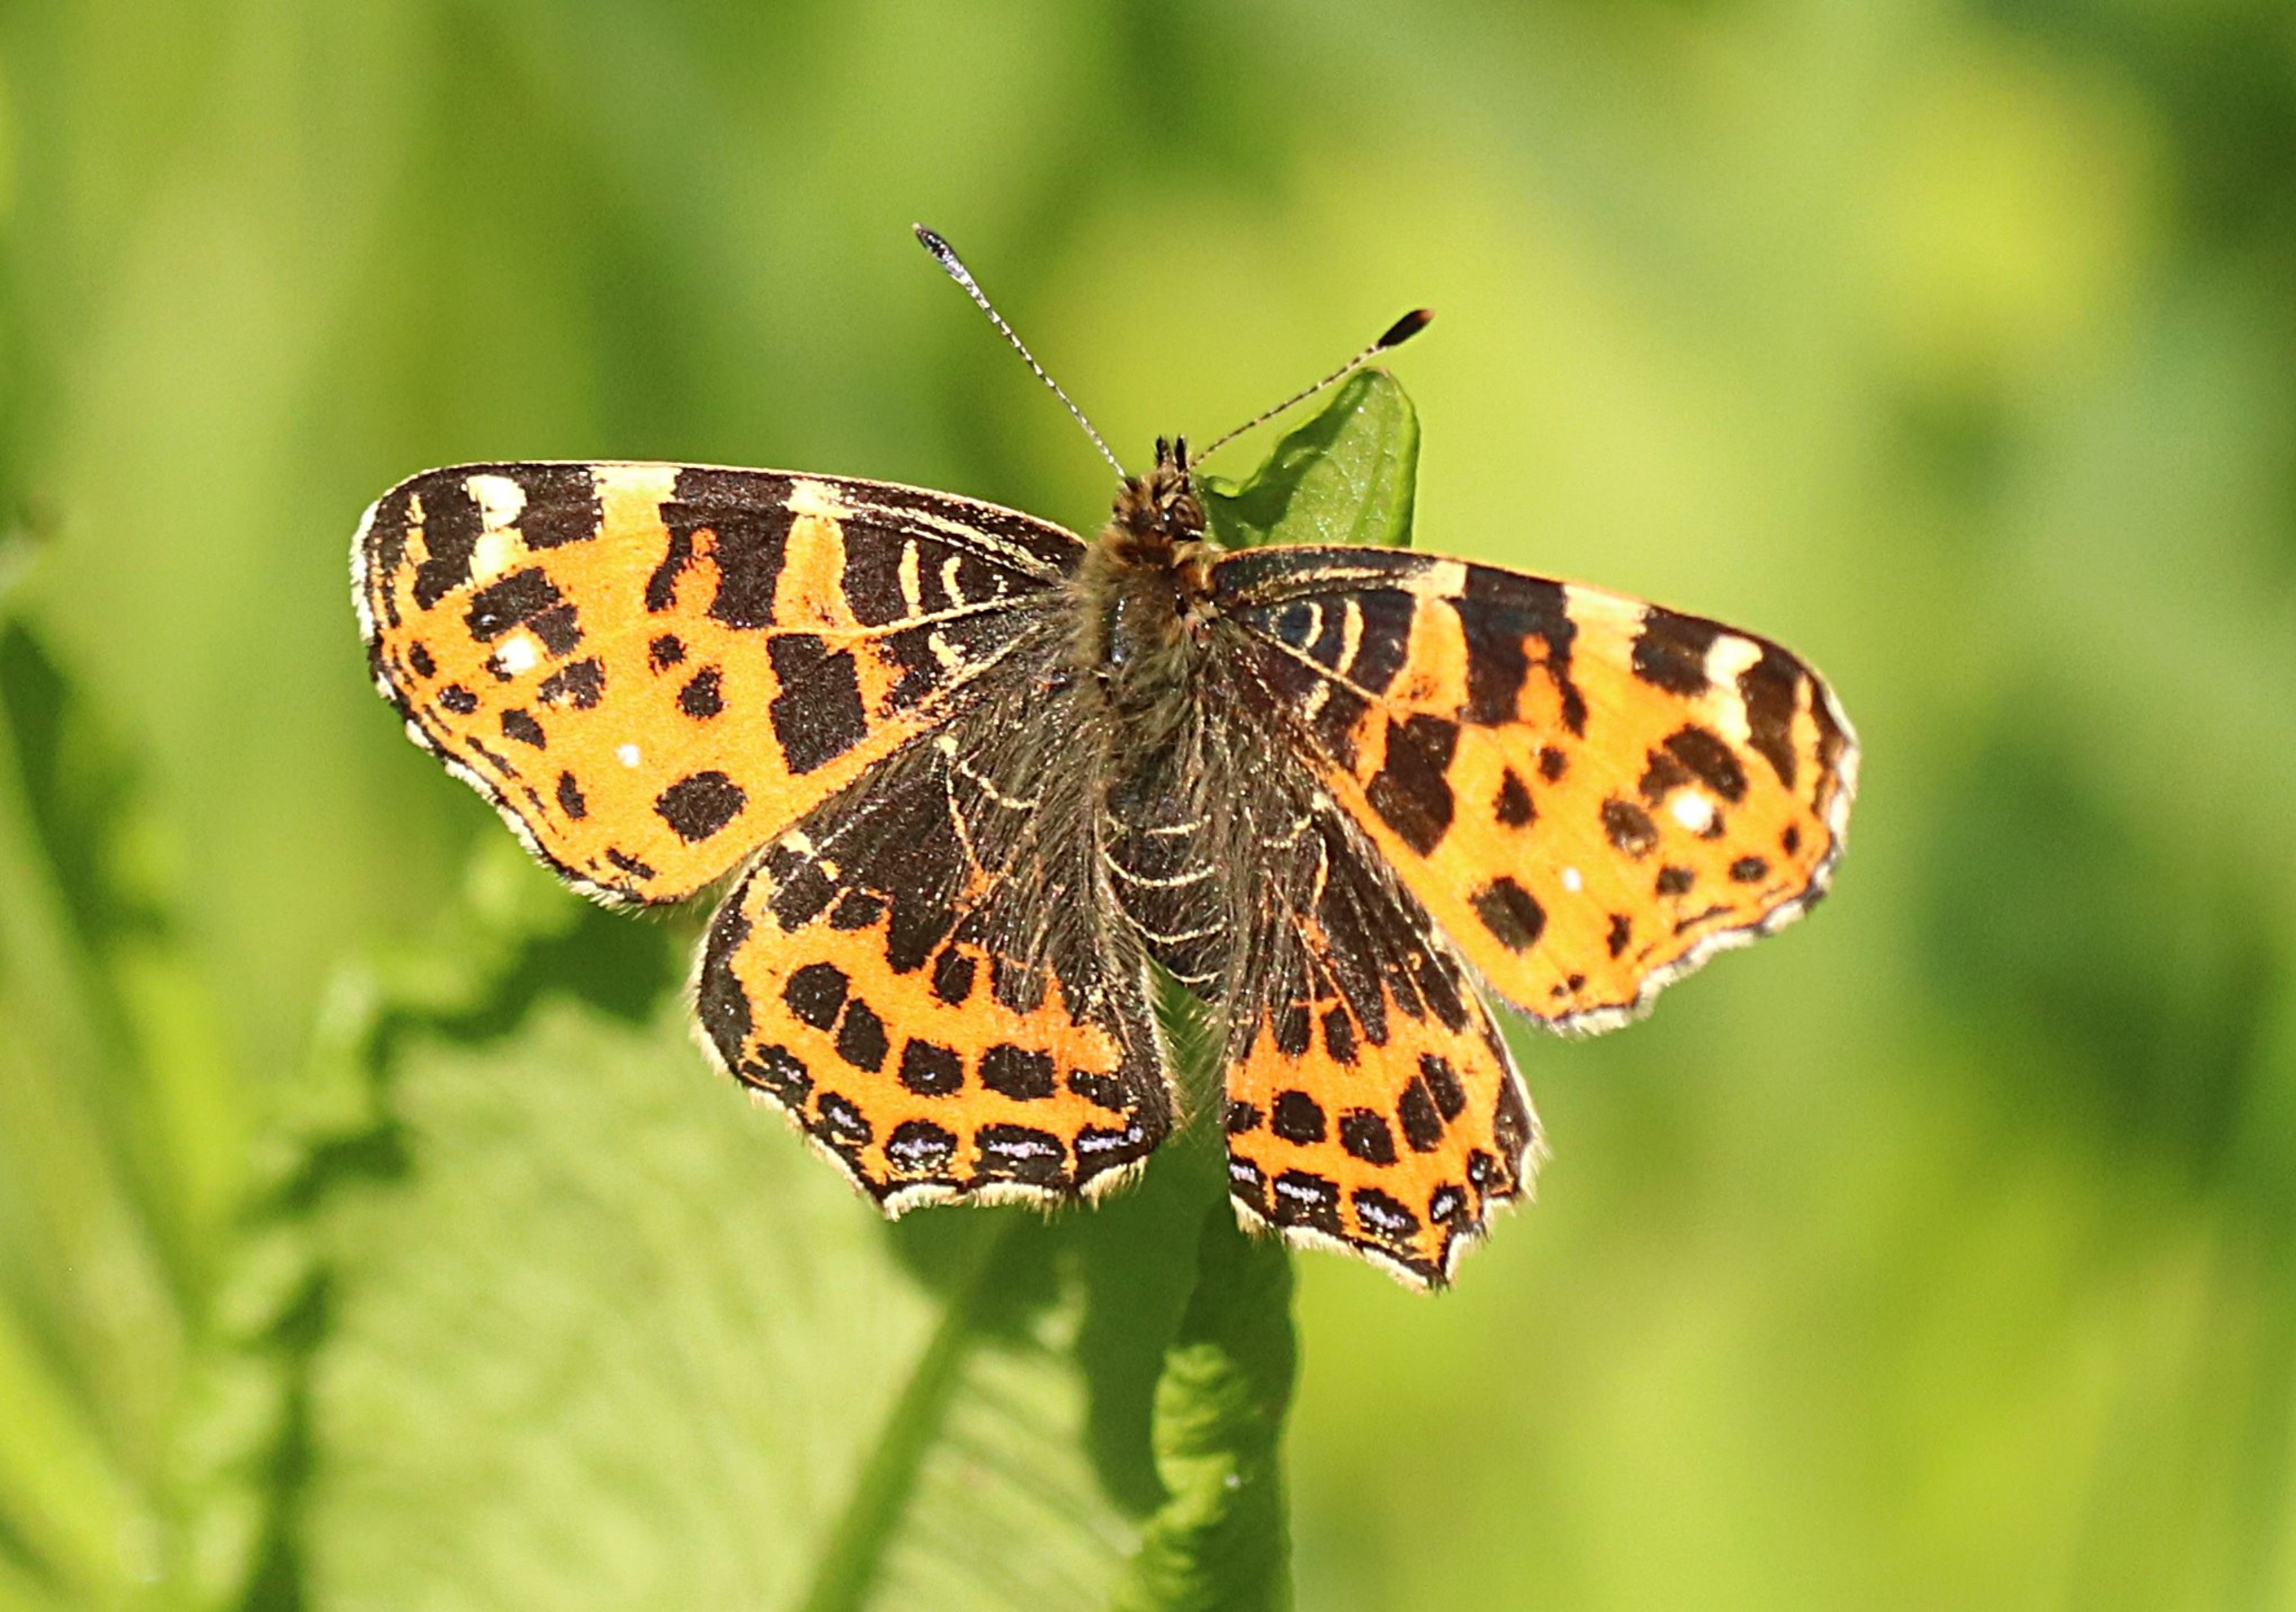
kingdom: Animalia
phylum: Arthropoda
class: Insecta
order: Lepidoptera
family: Nymphalidae
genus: Araschnia
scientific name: Araschnia levana
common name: Nældesommerfugl
